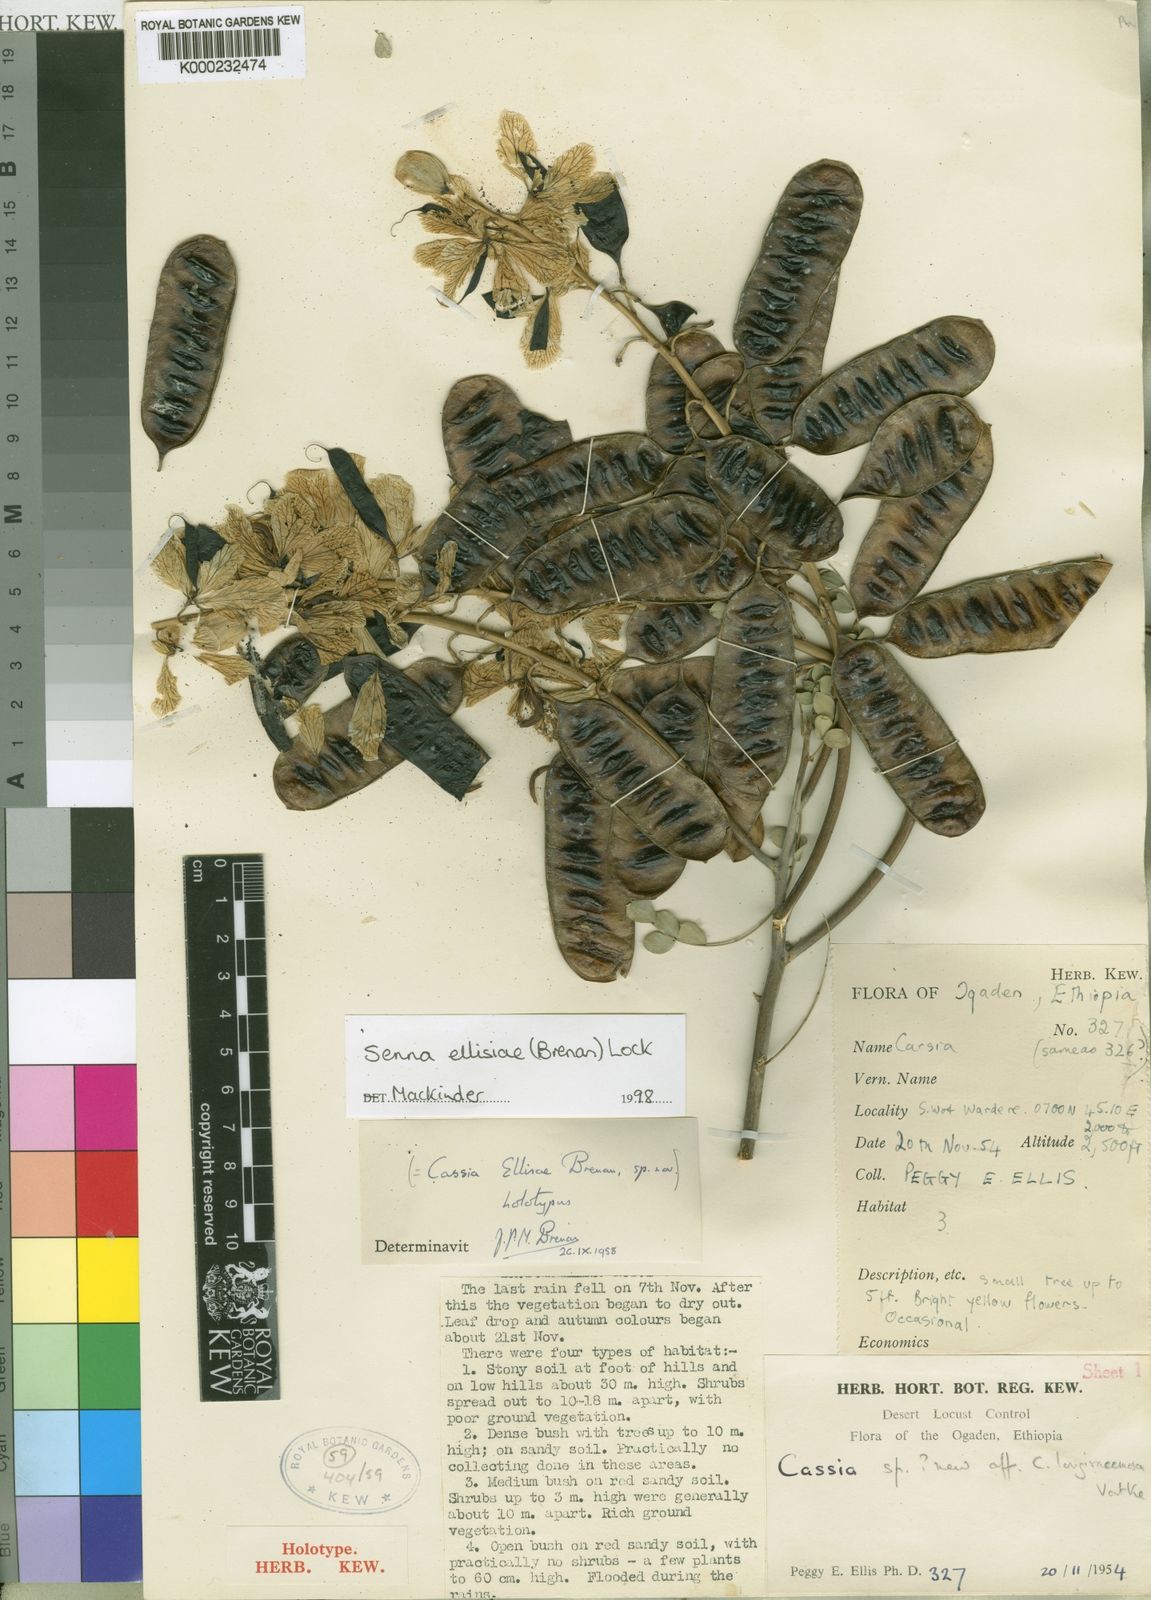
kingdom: Plantae
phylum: Tracheophyta
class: Magnoliopsida
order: Fabales
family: Fabaceae
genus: Senna
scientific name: Senna ellisiae
